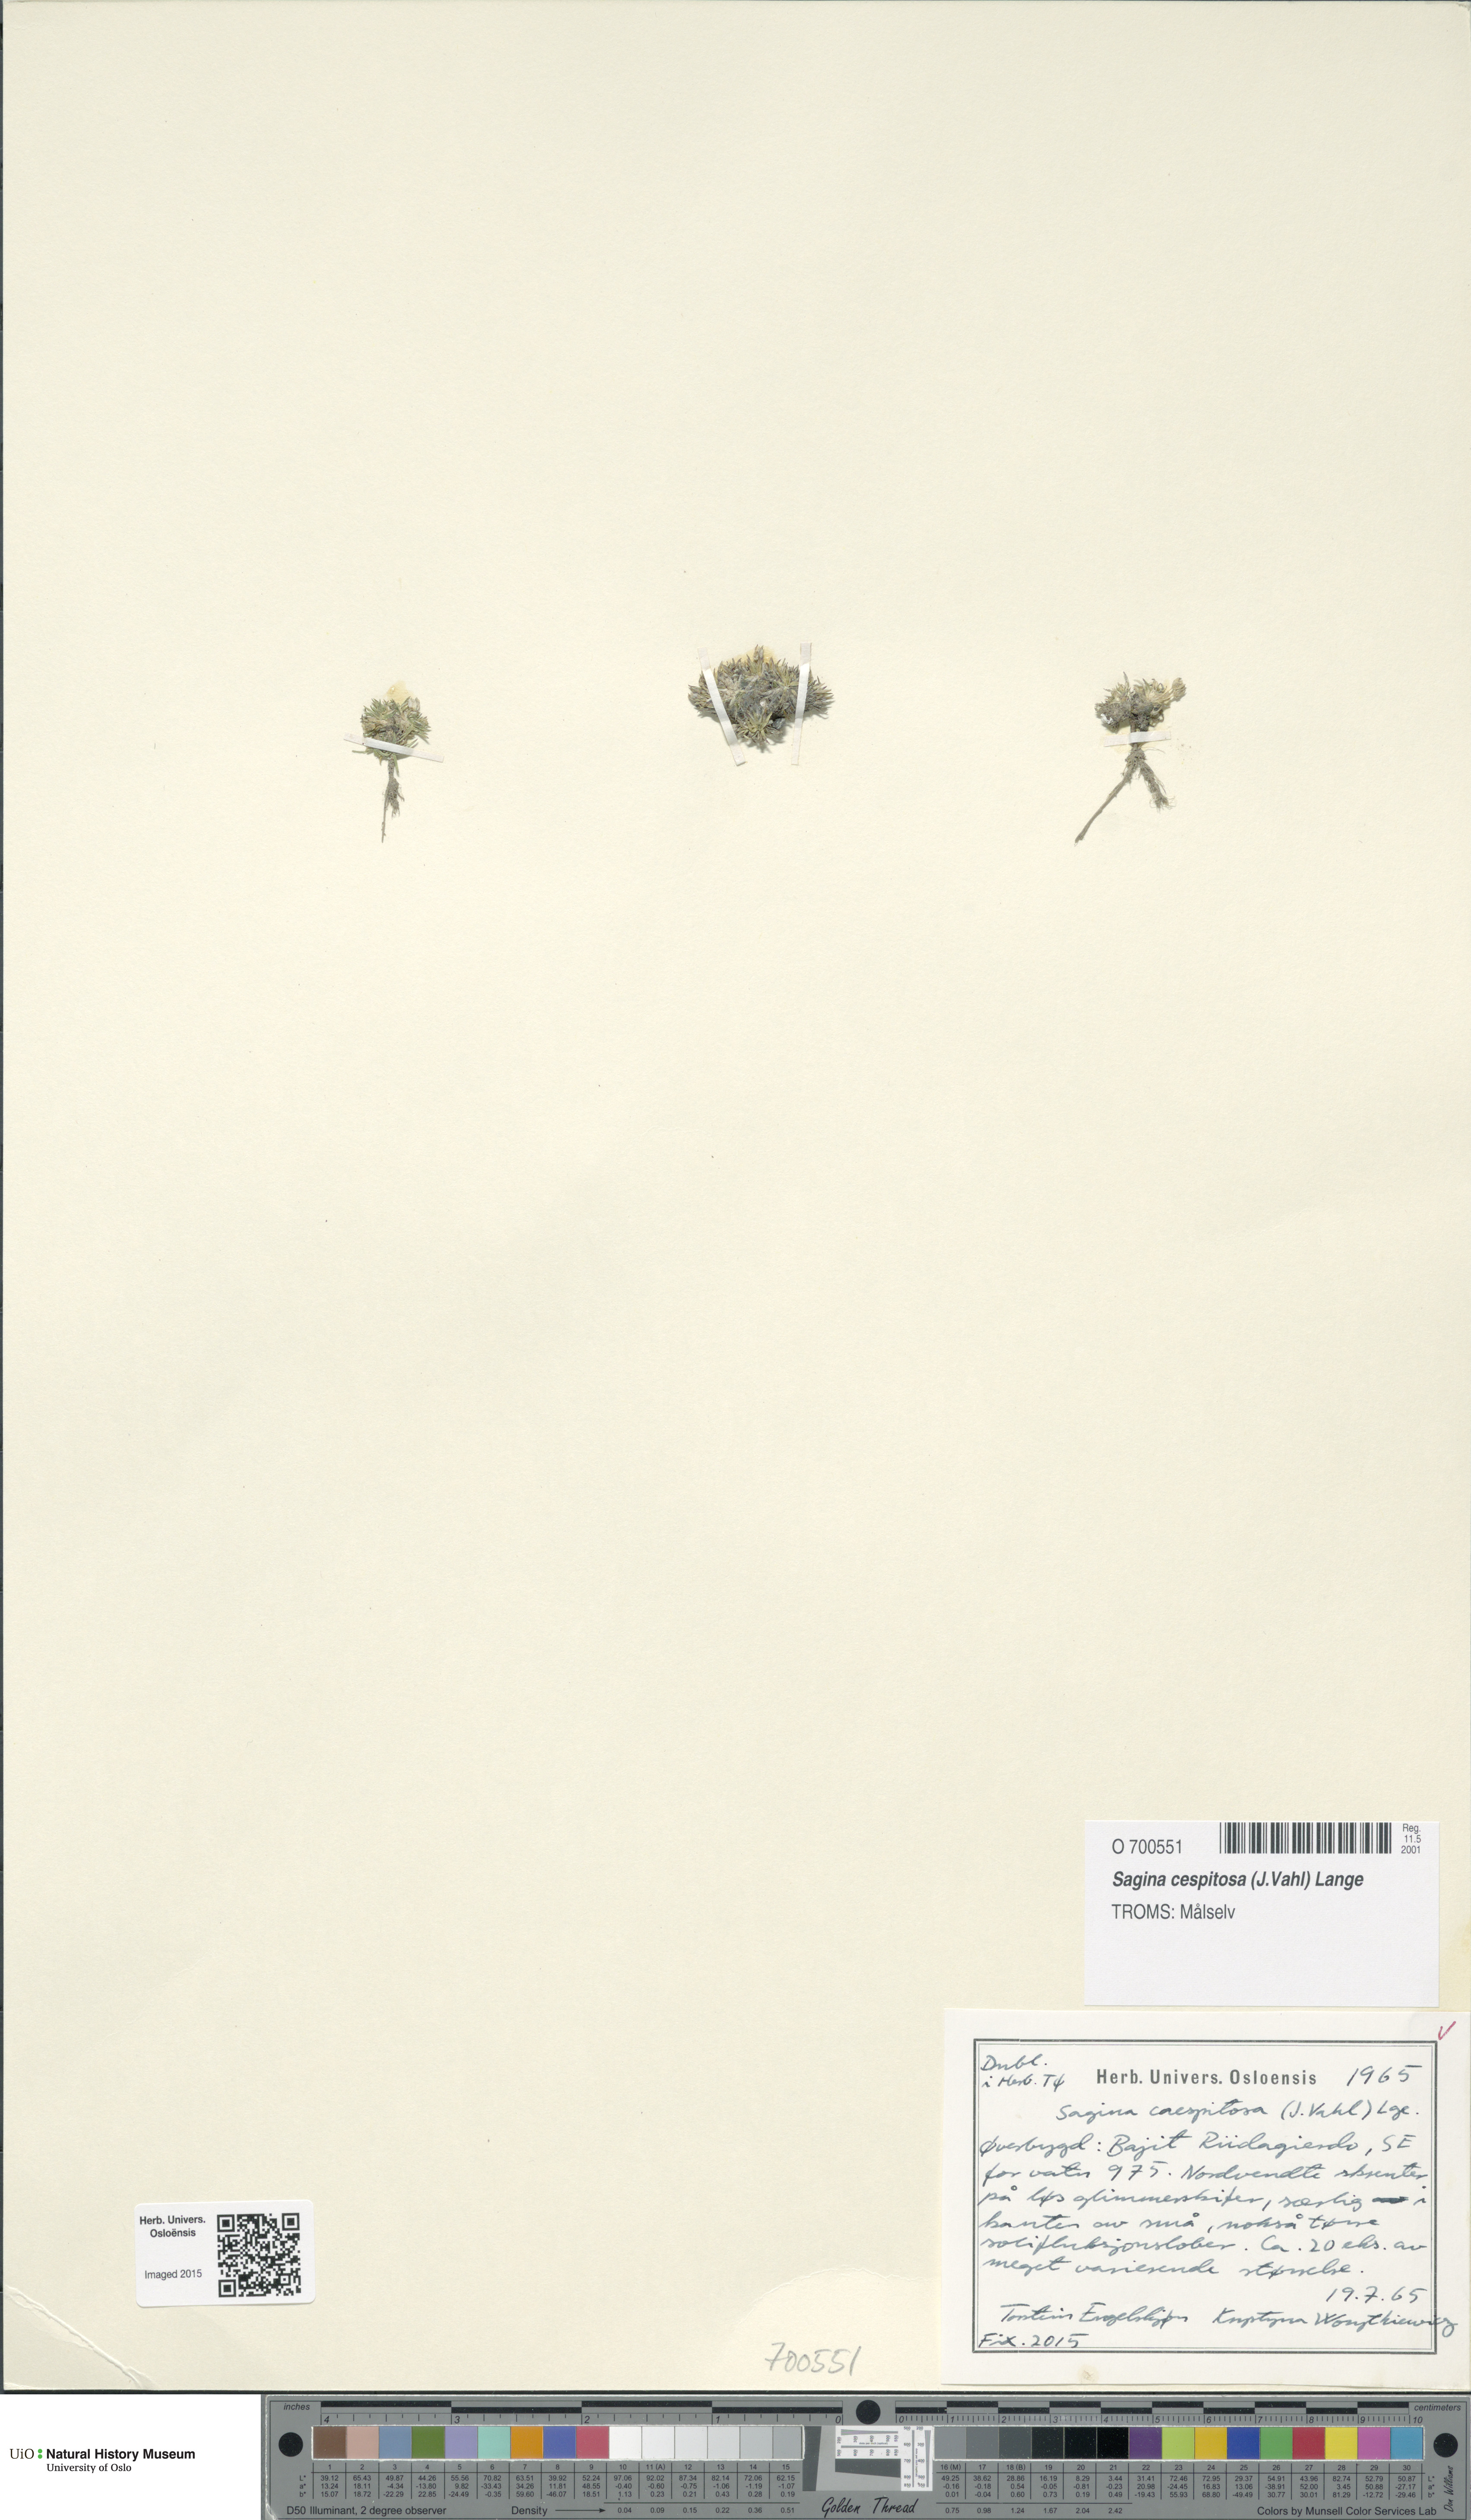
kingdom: Plantae
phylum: Tracheophyta
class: Magnoliopsida
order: Caryophyllales
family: Caryophyllaceae
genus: Sagina
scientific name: Sagina caespitosa
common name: Tufted pearlwort
